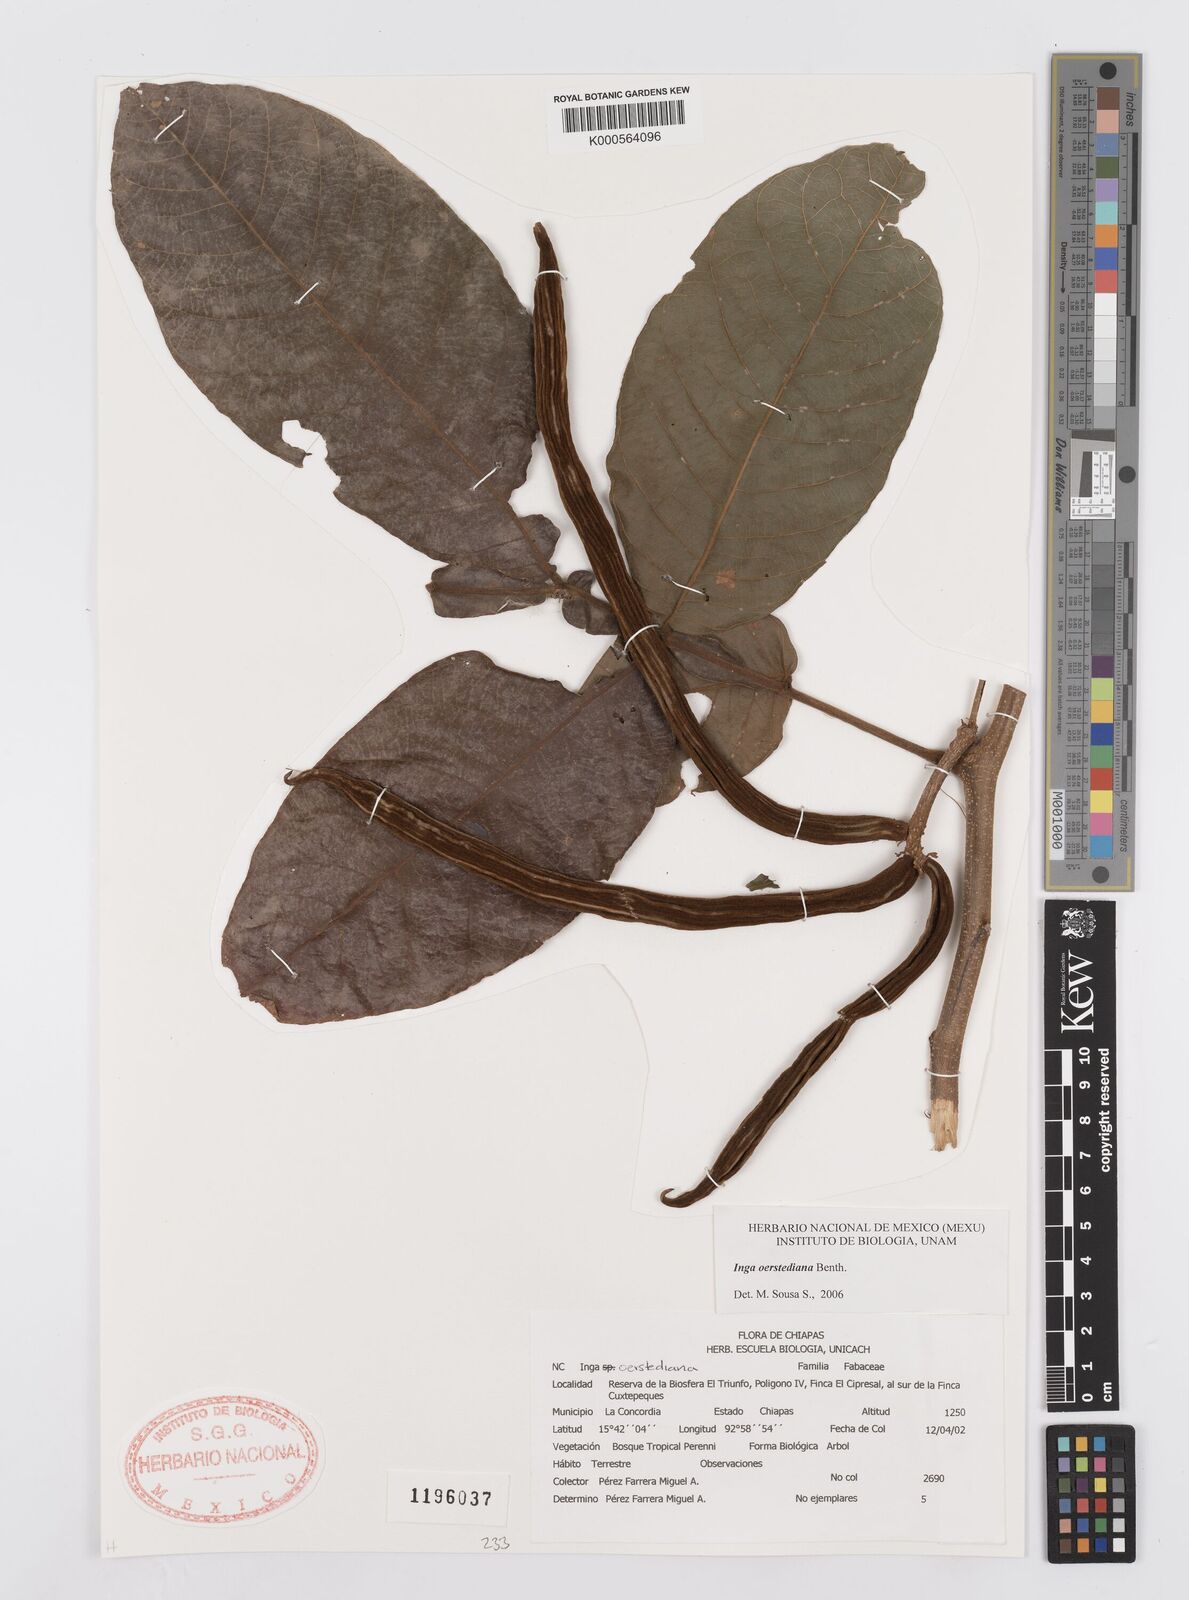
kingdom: Plantae
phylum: Tracheophyta
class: Magnoliopsida
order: Fabales
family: Fabaceae
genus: Inga
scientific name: Inga oerstediana
